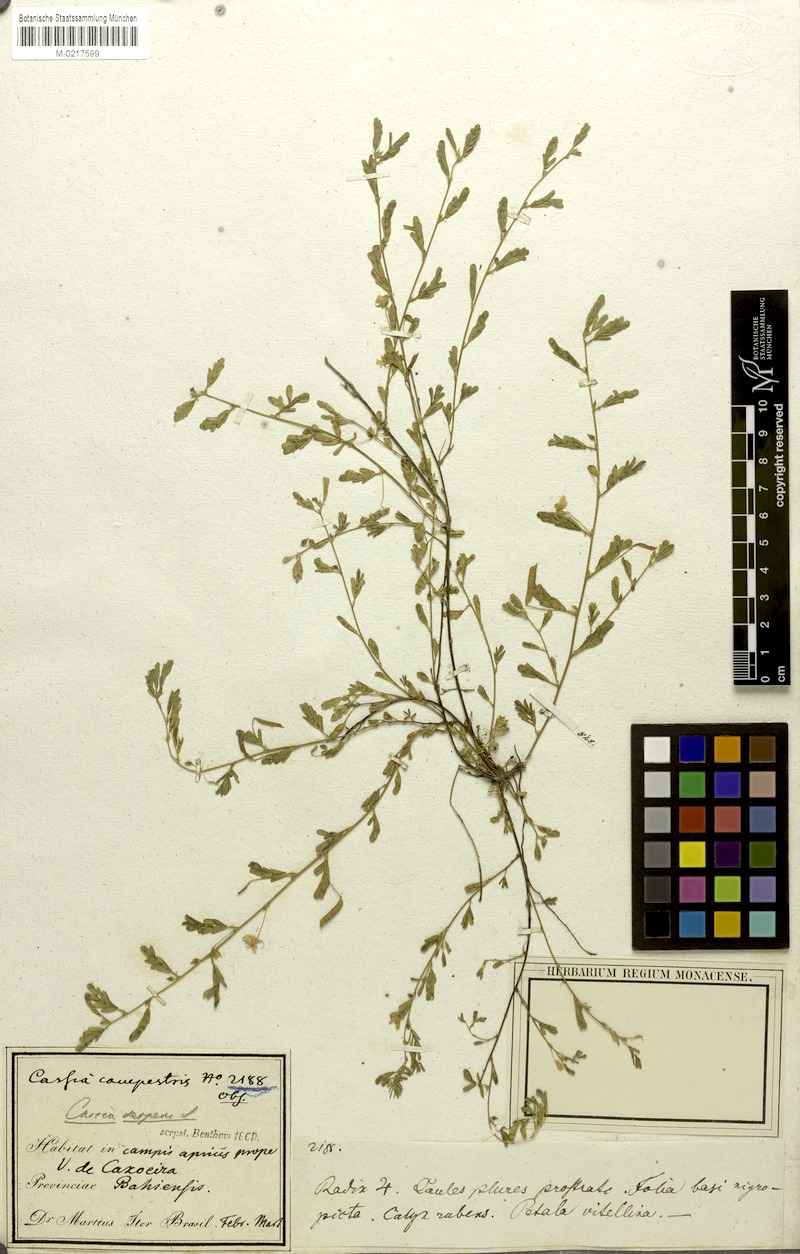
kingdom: Plantae
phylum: Tracheophyta
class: Magnoliopsida
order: Fabales
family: Fabaceae
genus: Chamaecrista
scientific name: Chamaecrista serpens
